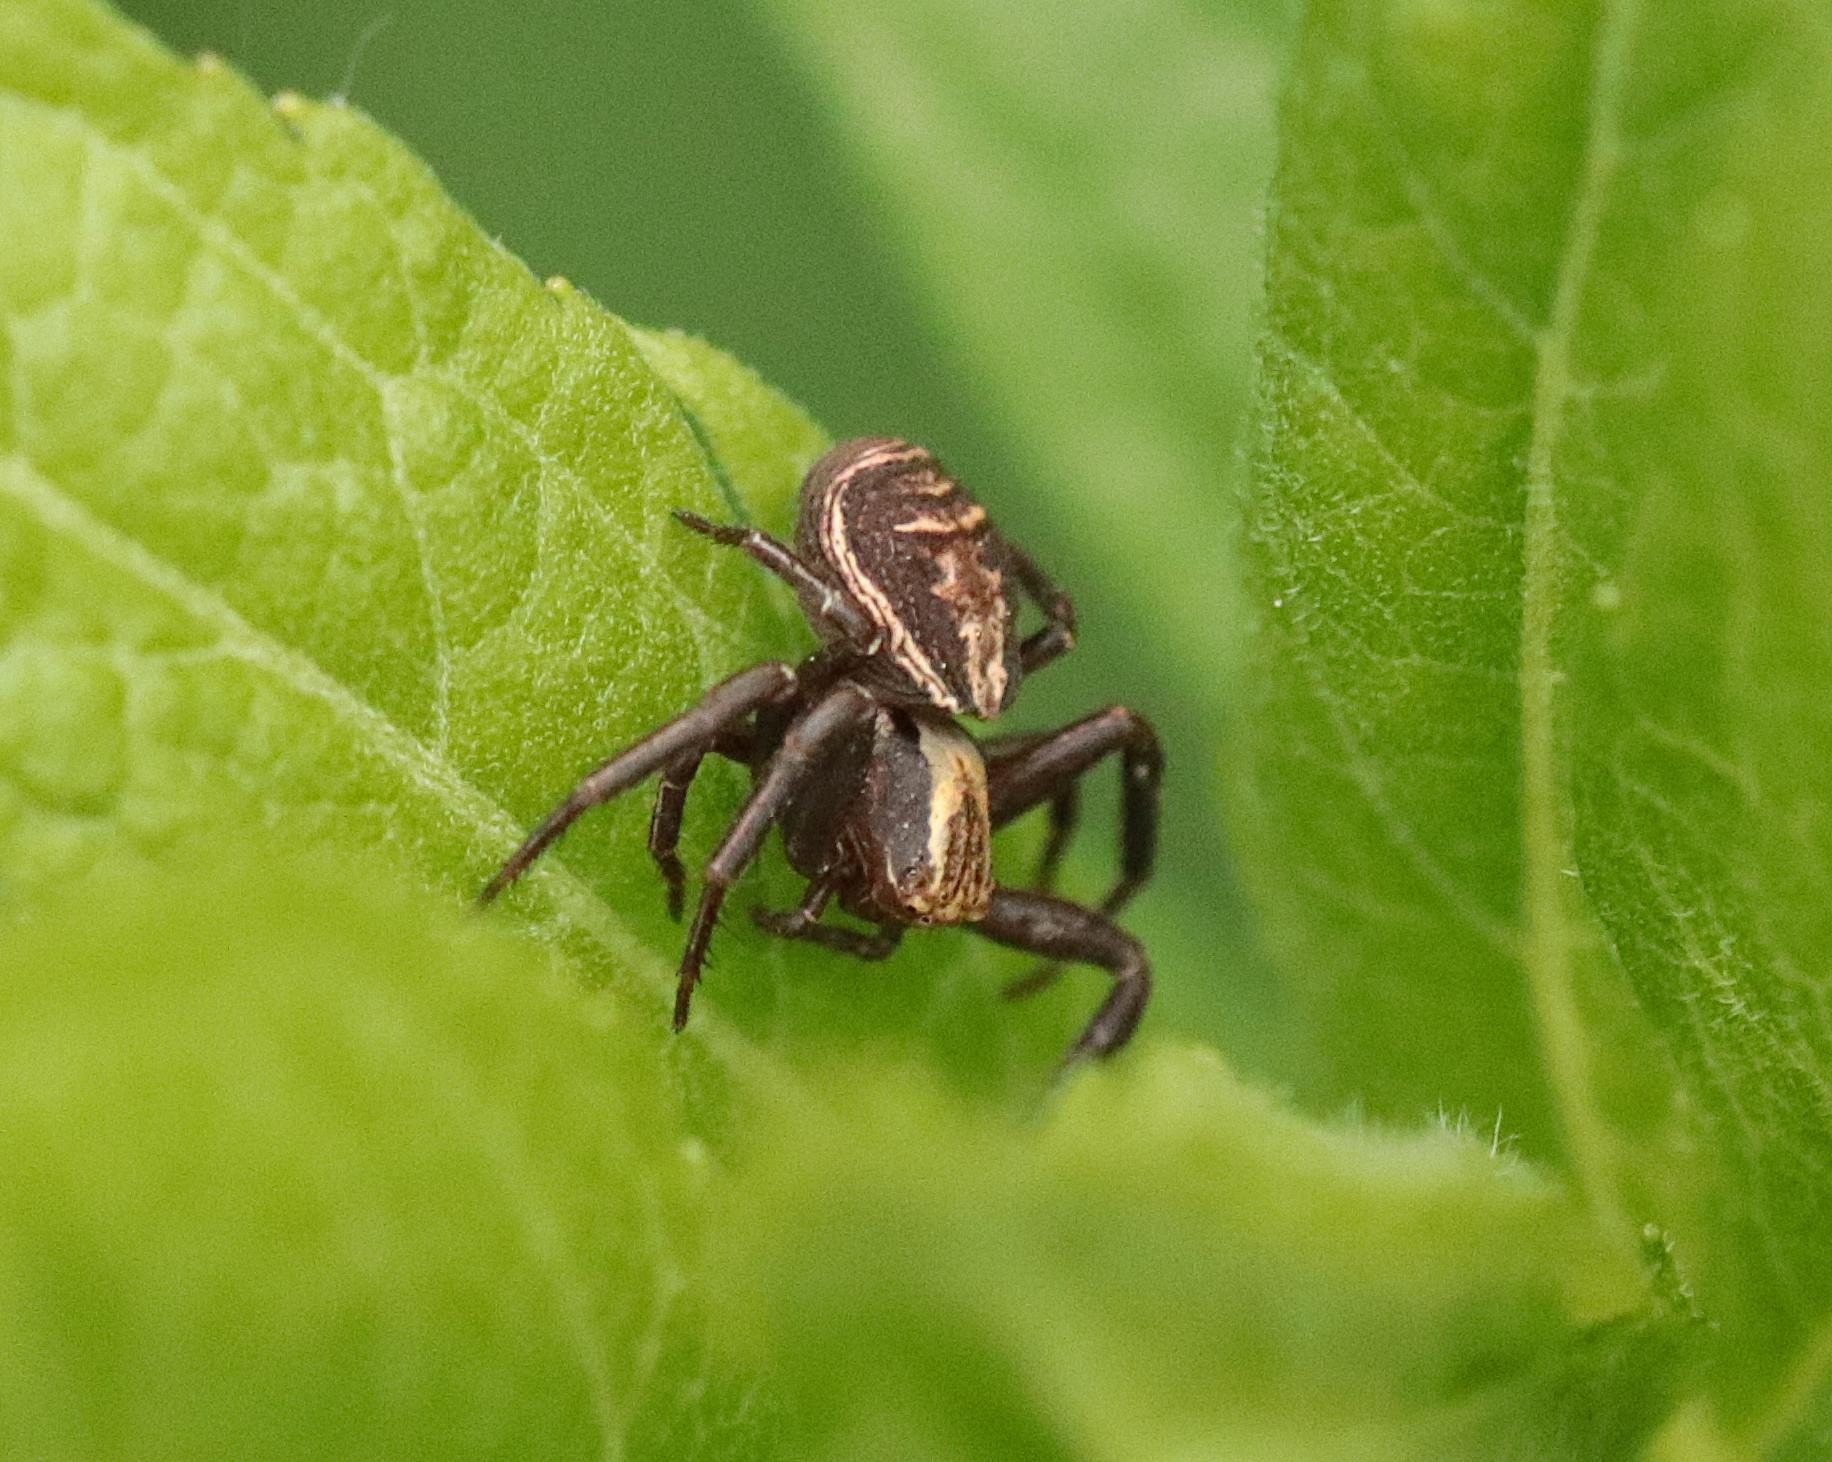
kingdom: Animalia
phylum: Arthropoda
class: Arachnida
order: Araneae
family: Thomisidae
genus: Xysticus
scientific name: Xysticus ulmi
